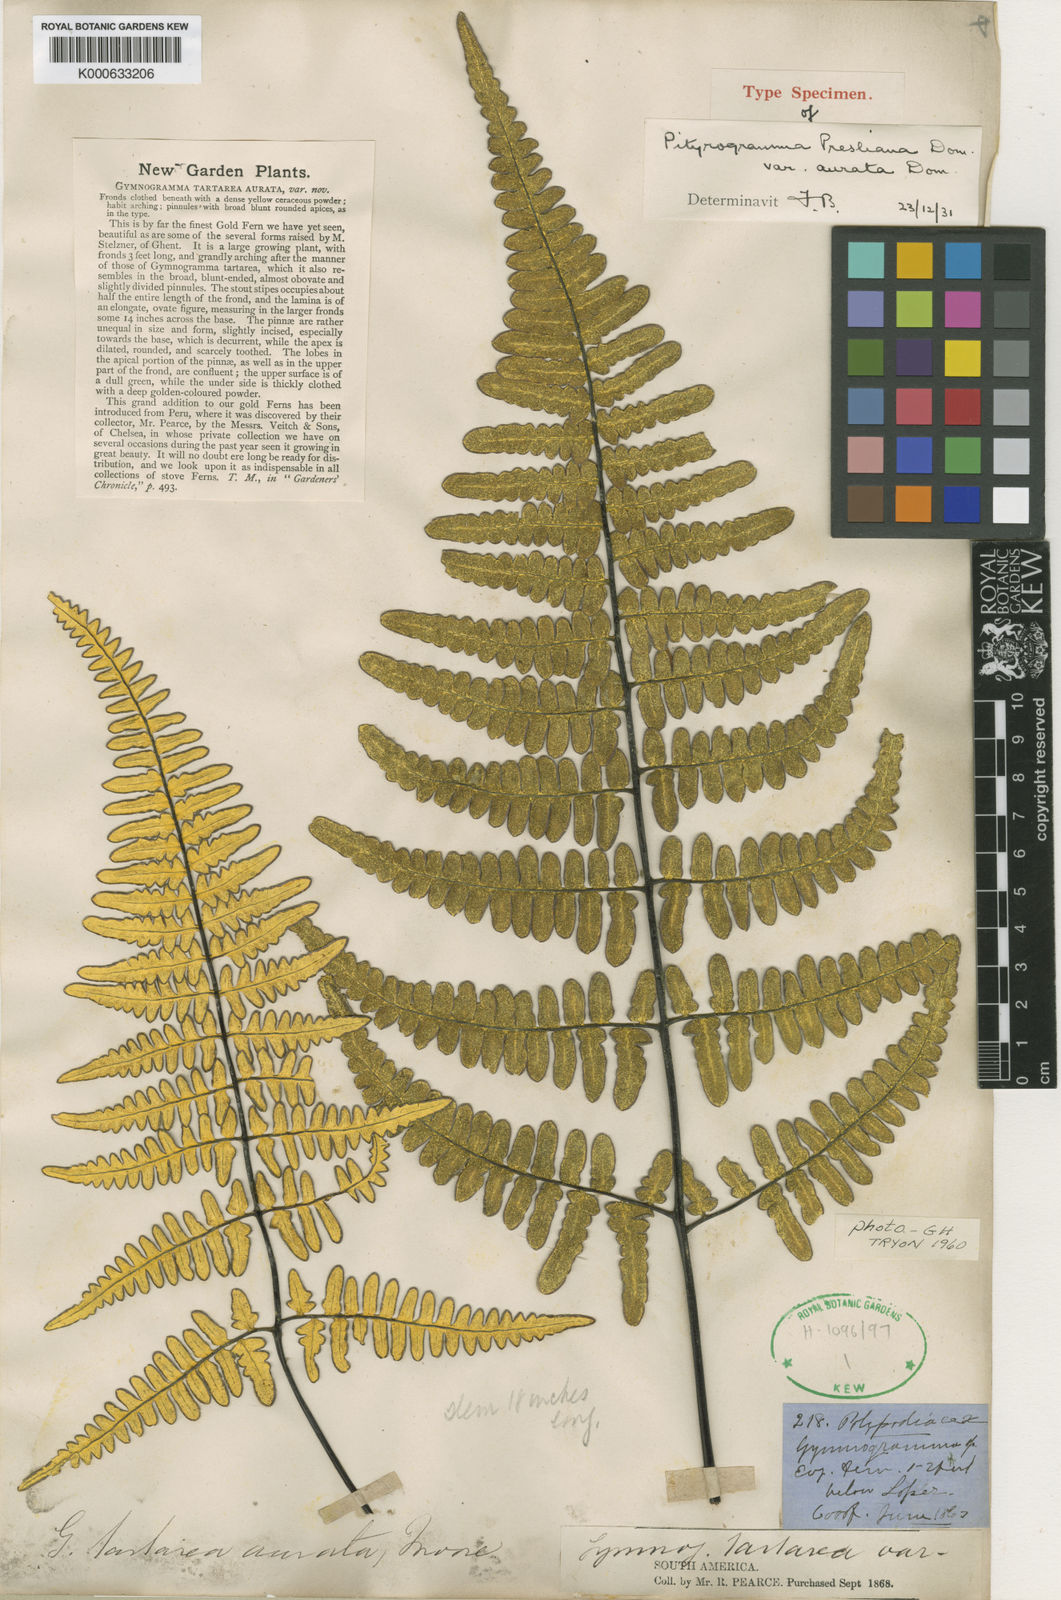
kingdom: Plantae
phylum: Tracheophyta
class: Polypodiopsida
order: Polypodiales
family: Pteridaceae
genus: Pityrogramma
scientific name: Pityrogramma ebenea
